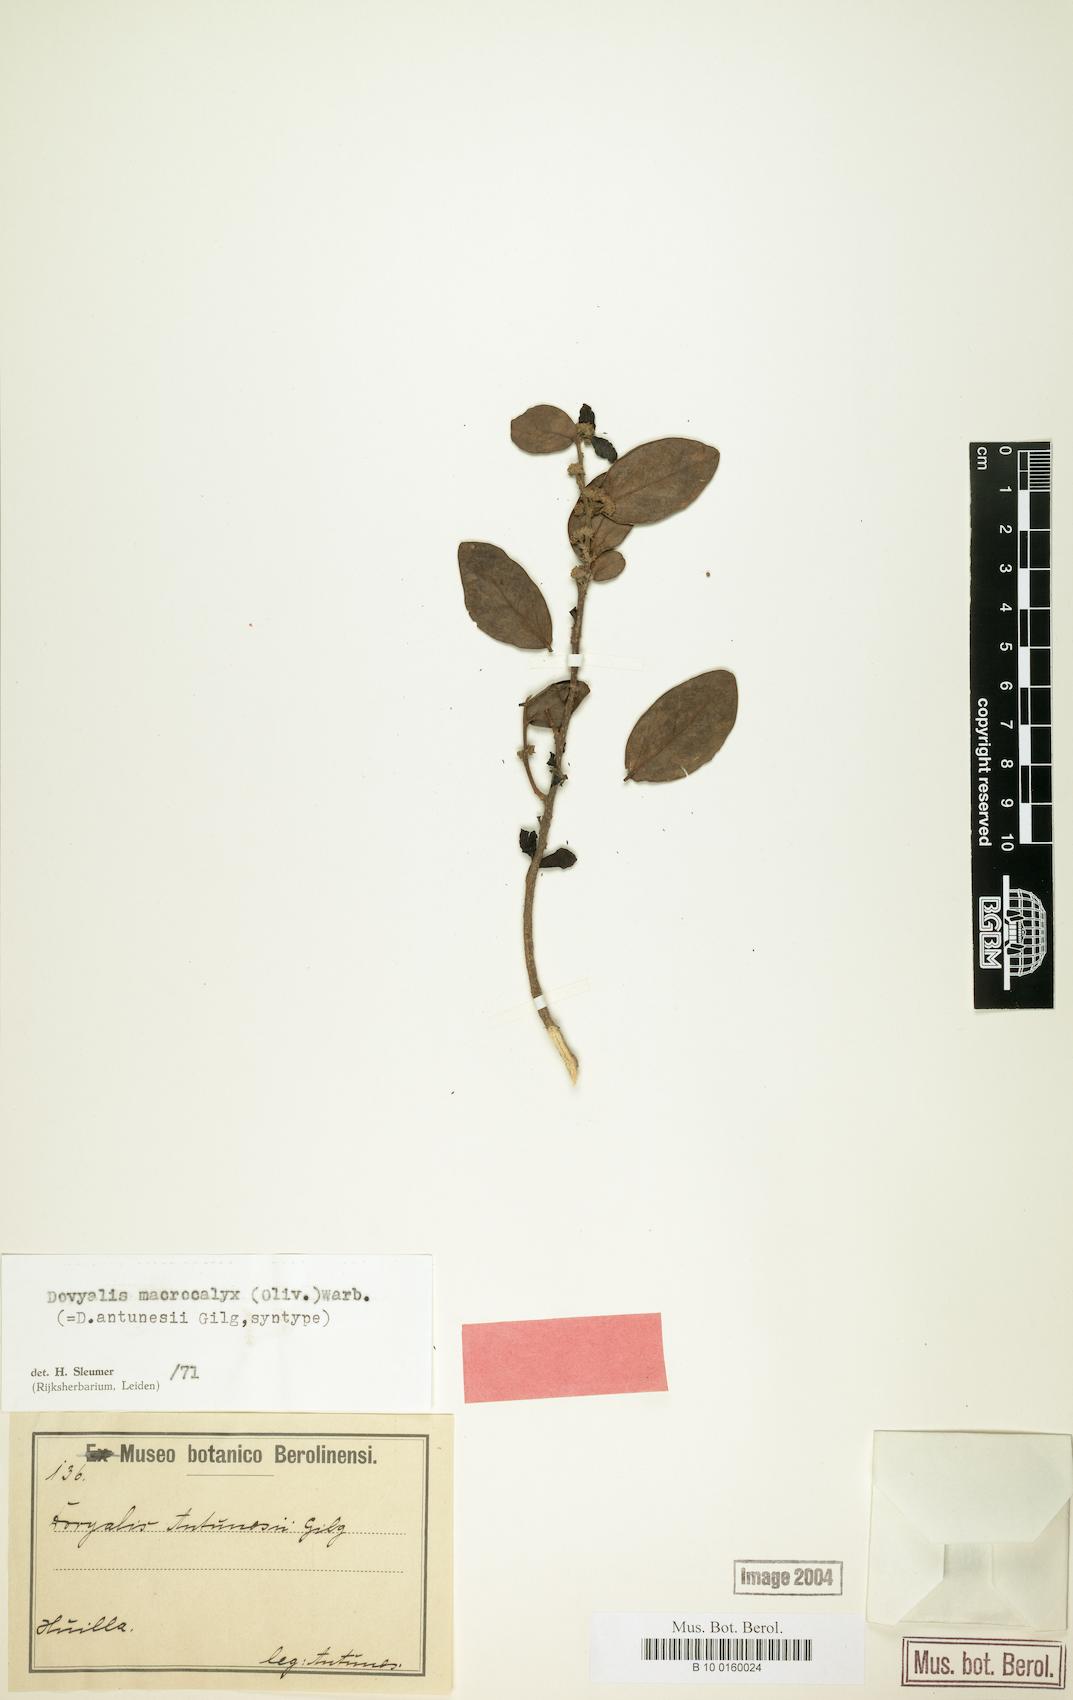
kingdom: Plantae
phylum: Tracheophyta
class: Magnoliopsida
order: Malpighiales
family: Salicaceae
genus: Dovyalis
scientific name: Dovyalis macrocalyx
